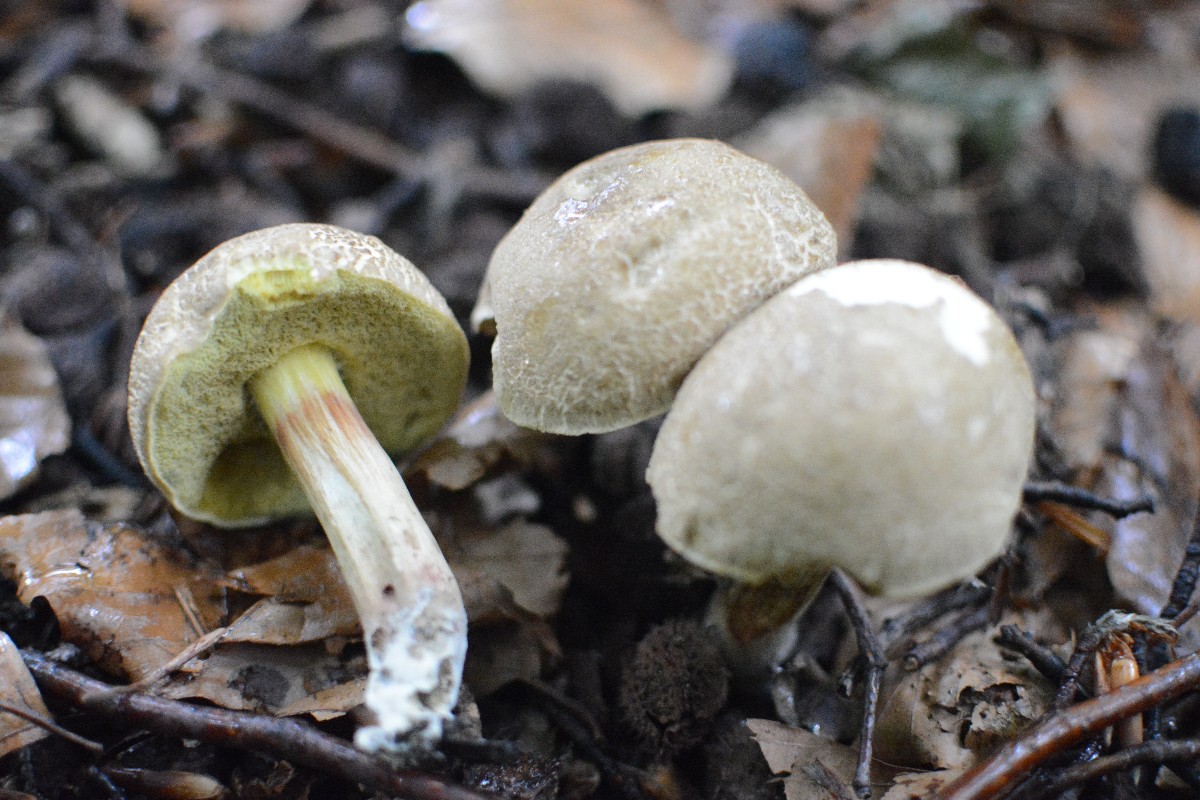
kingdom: Fungi
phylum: Basidiomycota
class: Agaricomycetes
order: Boletales
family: Boletaceae
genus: Xerocomellus
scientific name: Xerocomellus
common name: dværgrørhat
